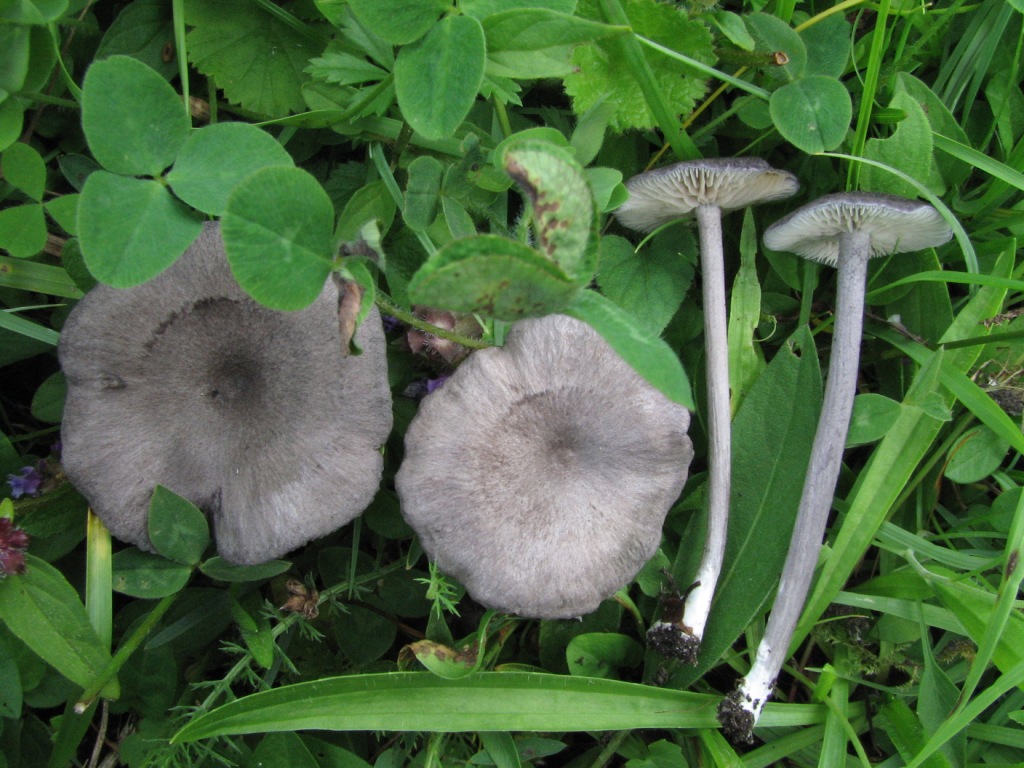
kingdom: Fungi
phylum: Basidiomycota
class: Agaricomycetes
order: Agaricales
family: Entolomataceae
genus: Entoloma
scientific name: Entoloma mougeotii
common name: violetgrå rødblad
